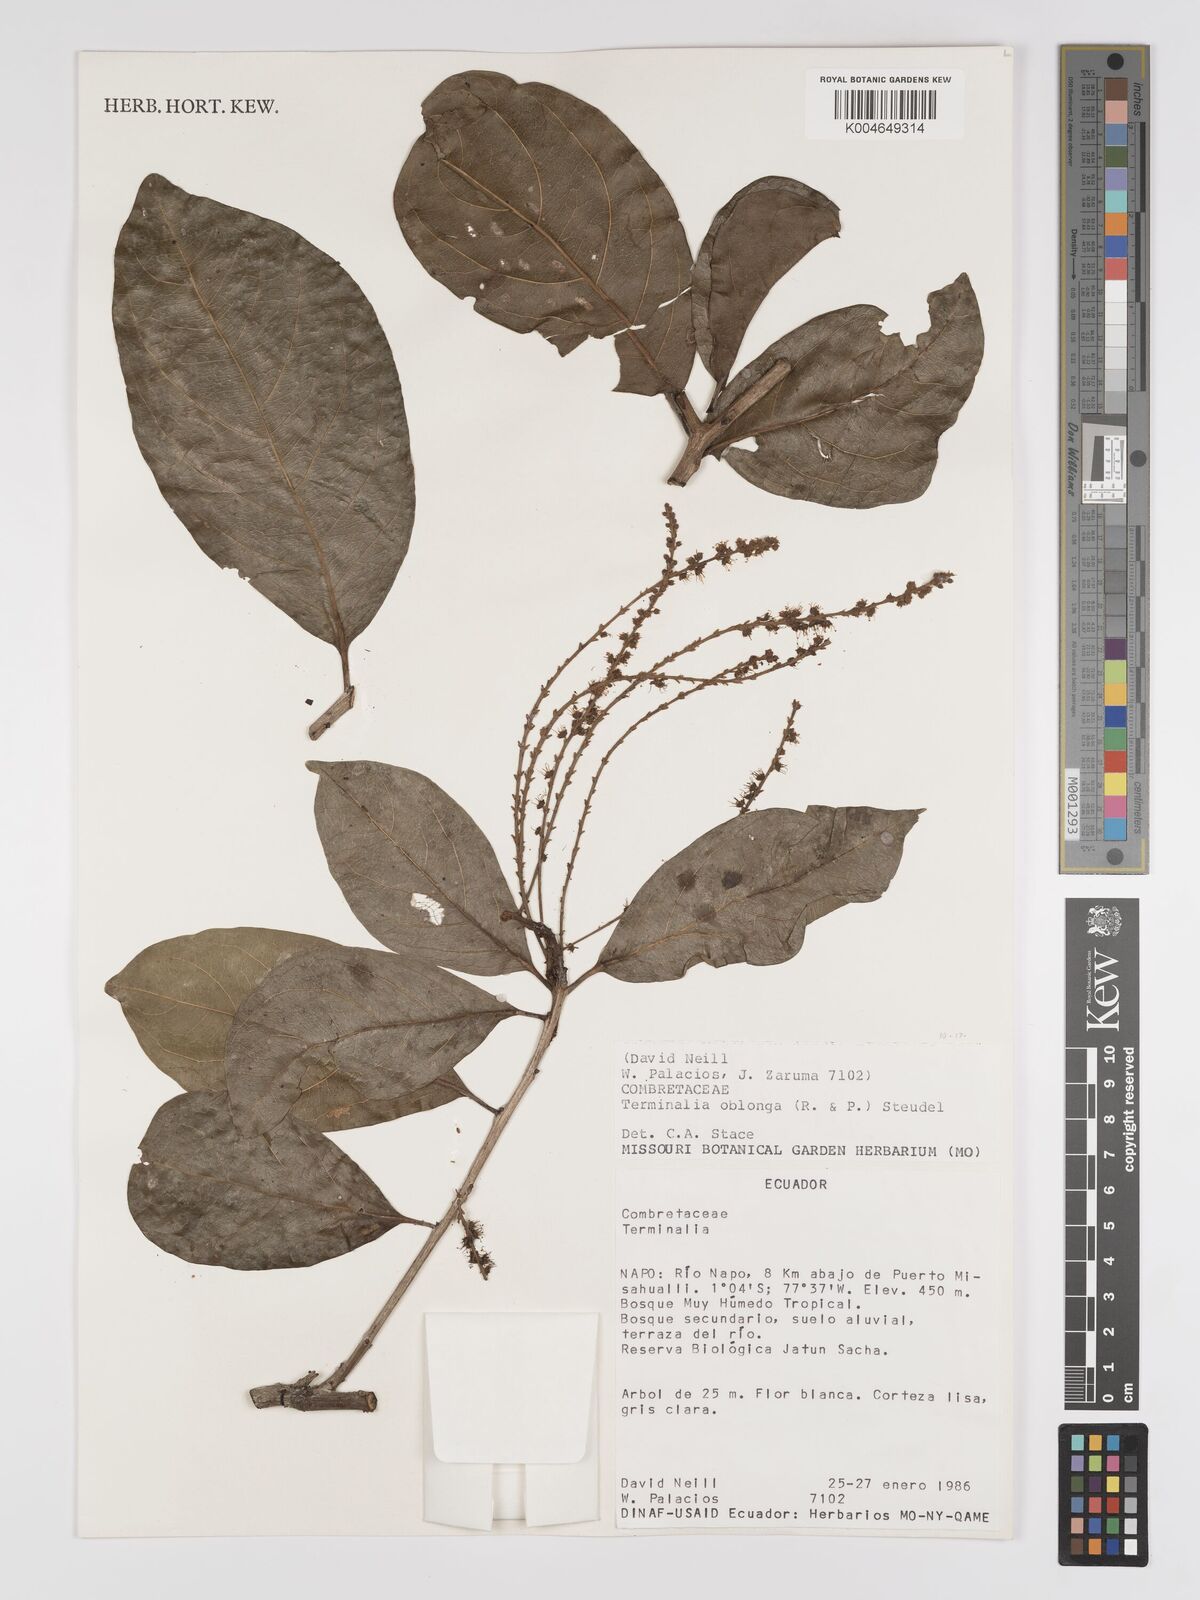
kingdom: Plantae
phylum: Tracheophyta
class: Magnoliopsida
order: Myrtales
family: Combretaceae
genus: Terminalia
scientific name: Terminalia oblonga
